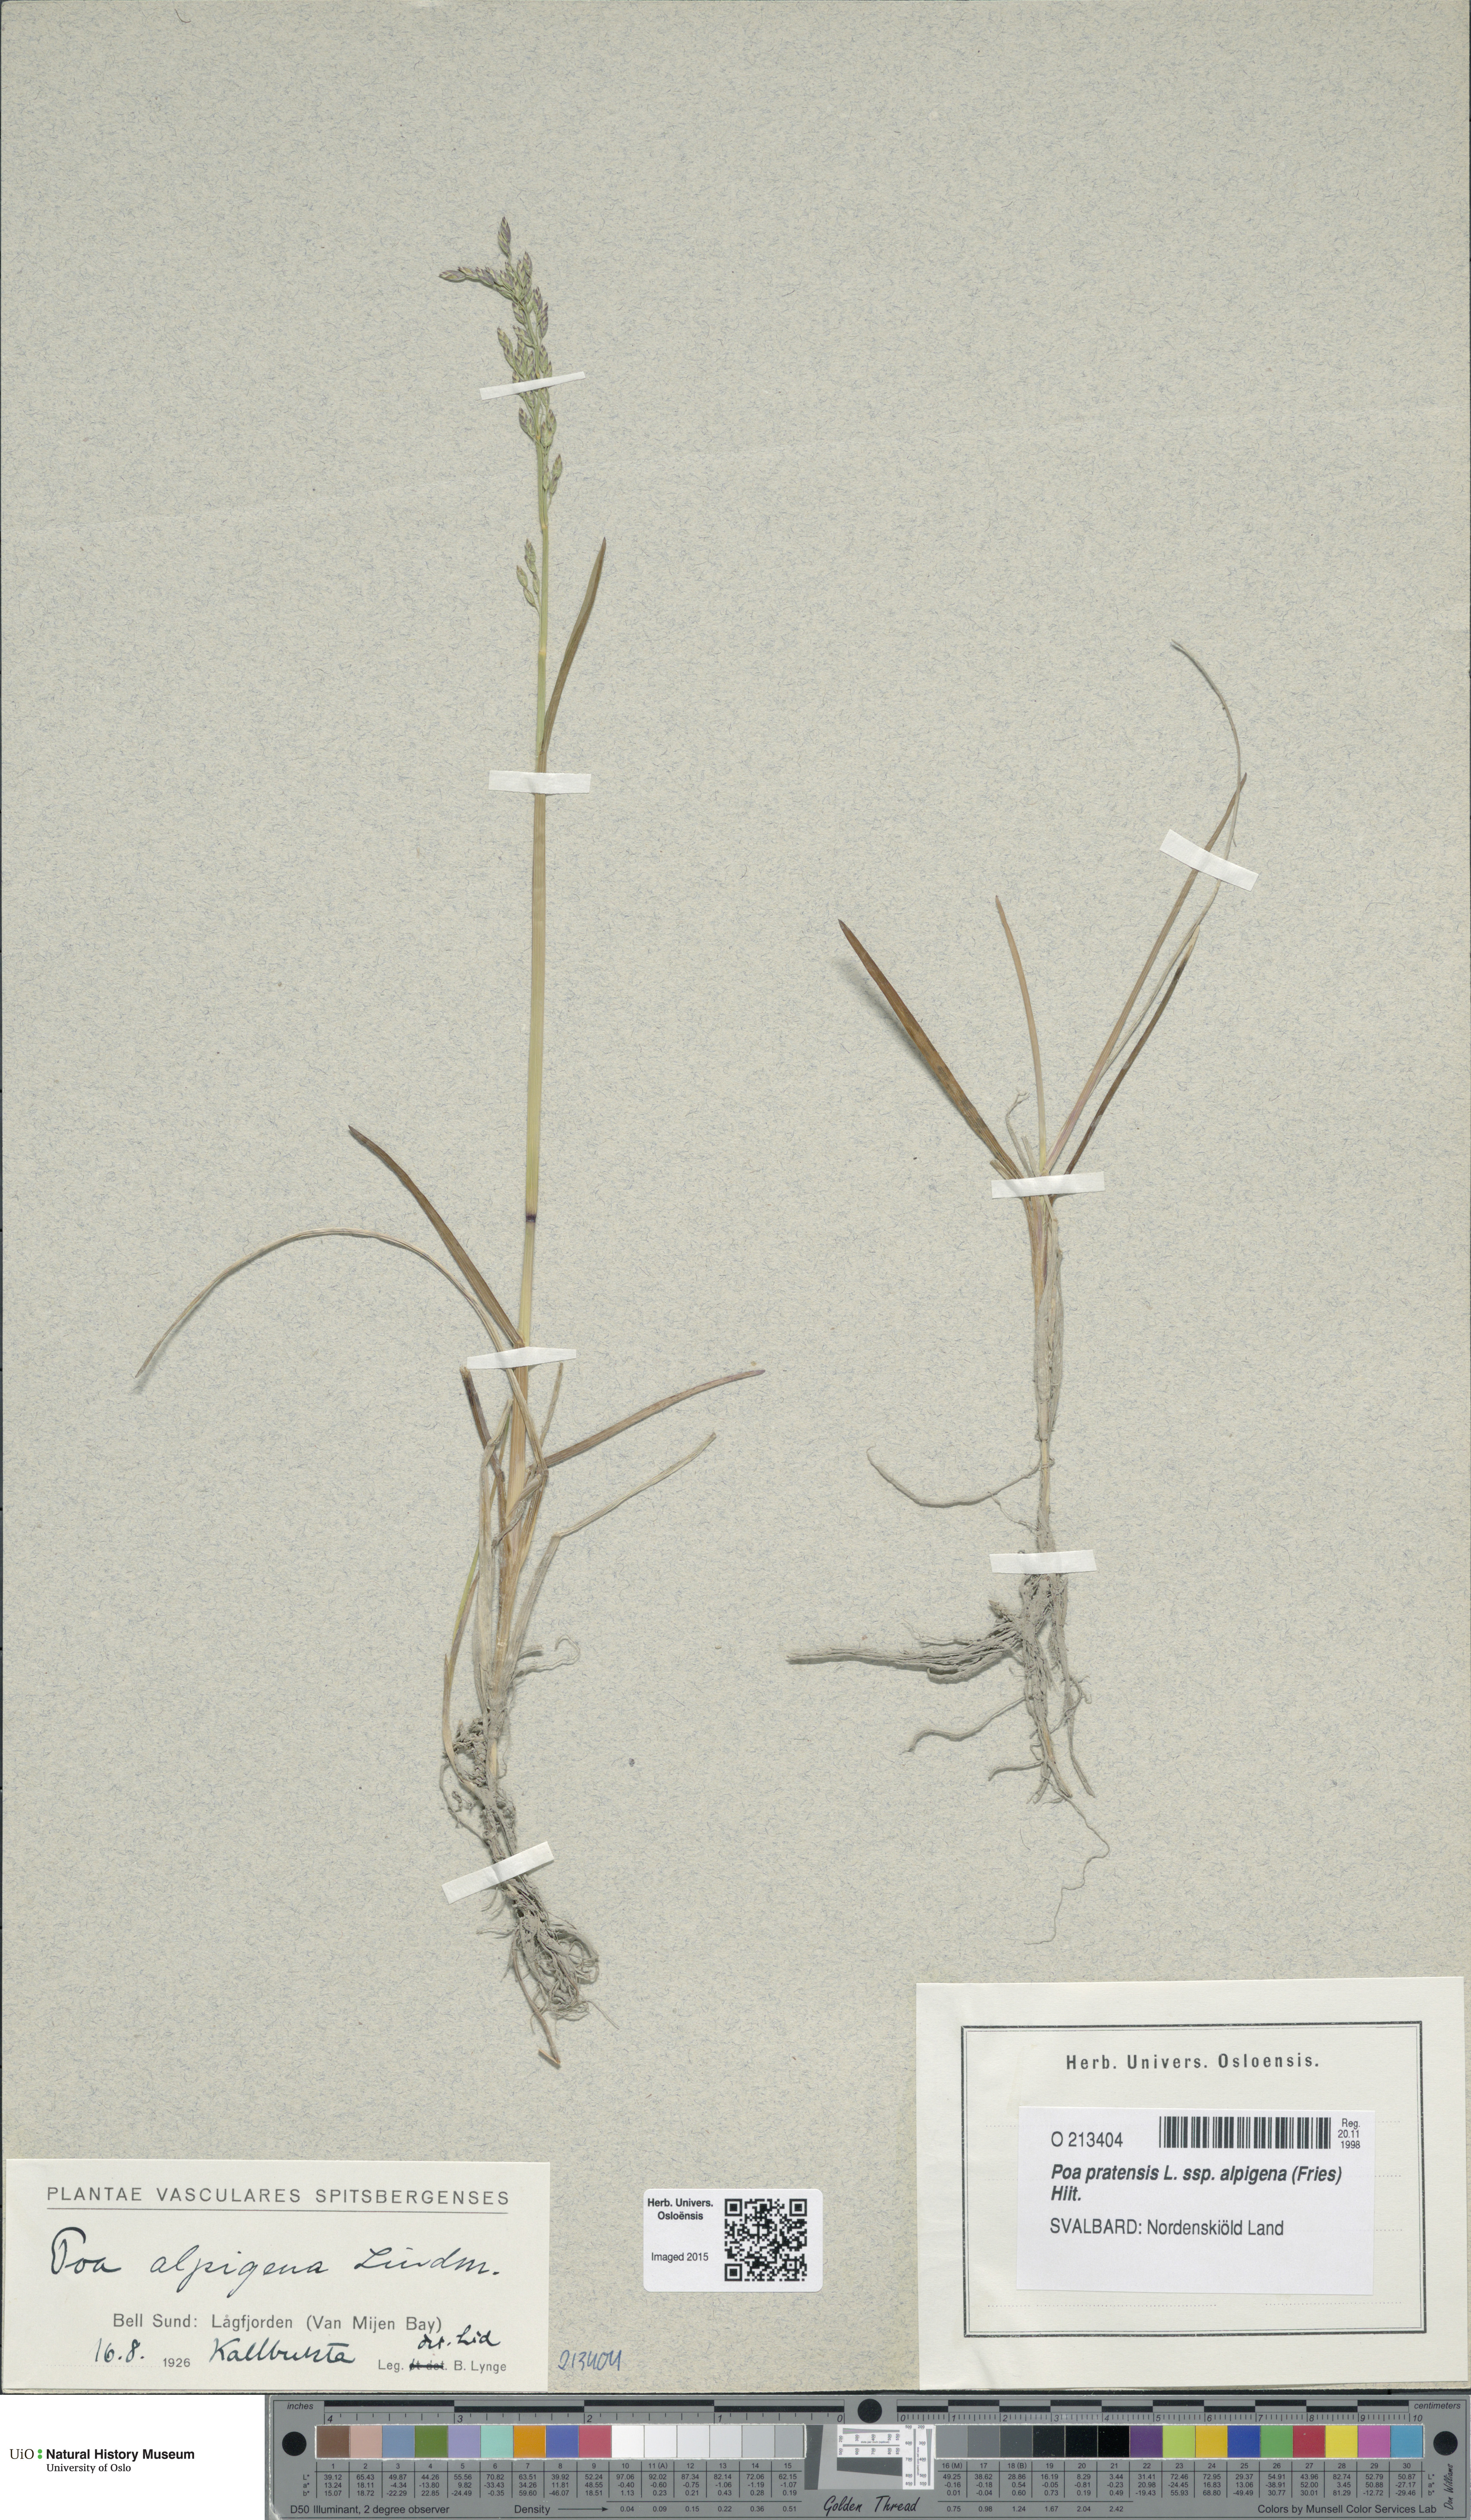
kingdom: Plantae
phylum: Tracheophyta
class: Liliopsida
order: Poales
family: Poaceae
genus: Poa
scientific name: Poa alpigena
